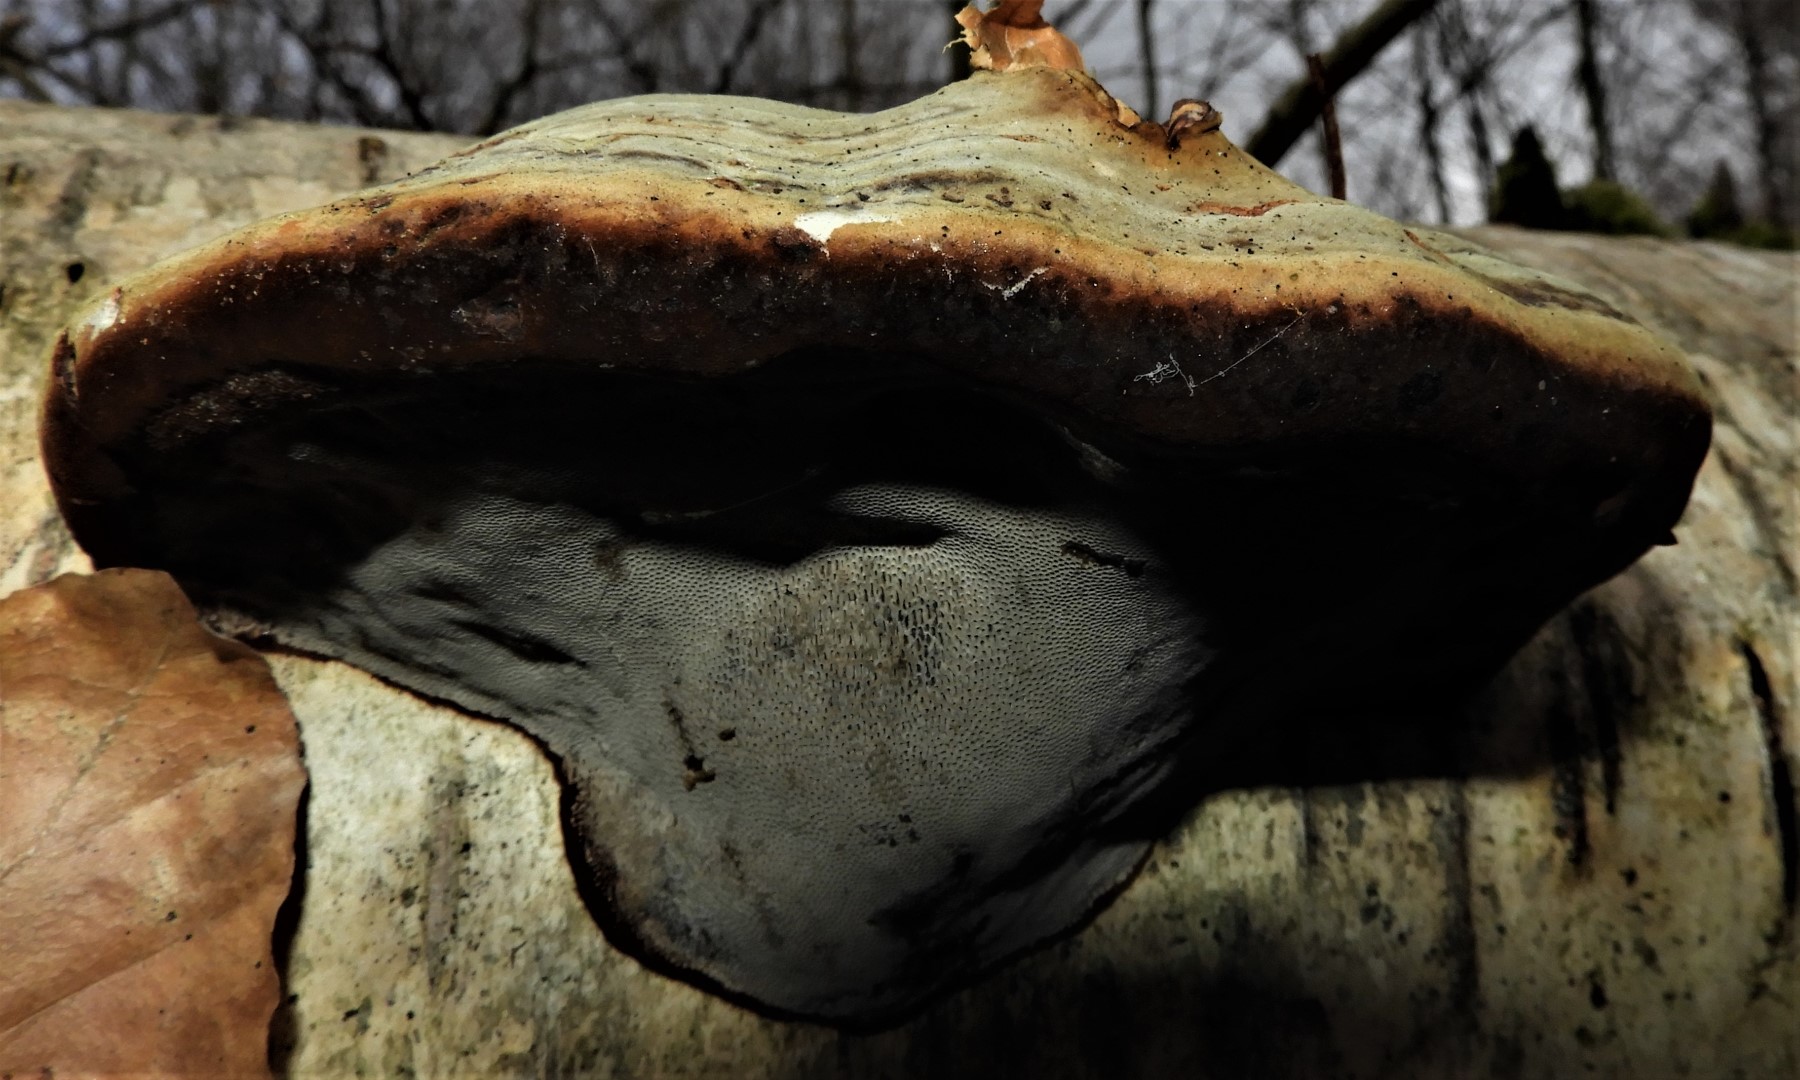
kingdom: Fungi
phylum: Basidiomycota
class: Agaricomycetes
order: Polyporales
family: Polyporaceae
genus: Fomes
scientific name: Fomes fomentarius
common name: tøndersvamp
